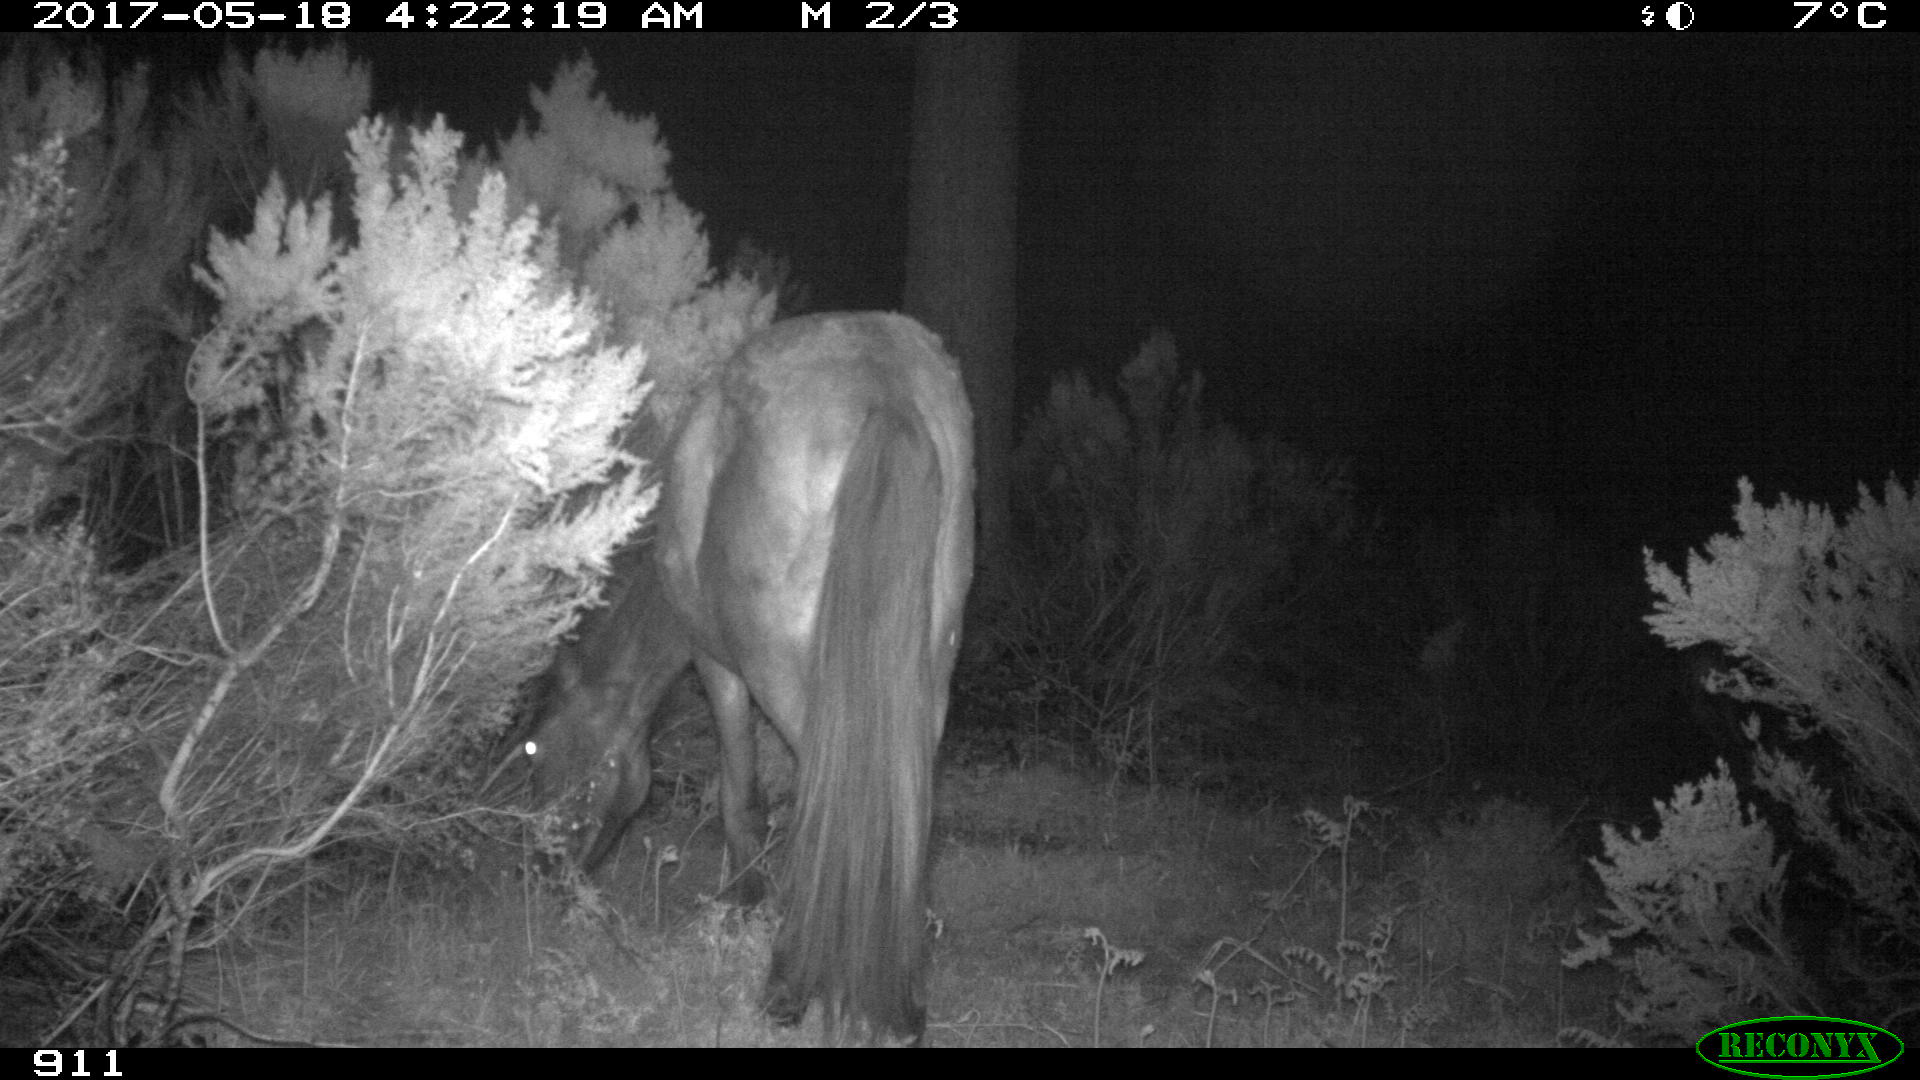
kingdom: Animalia
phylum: Chordata
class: Mammalia
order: Perissodactyla
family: Equidae
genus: Equus
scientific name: Equus caballus
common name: Horse
